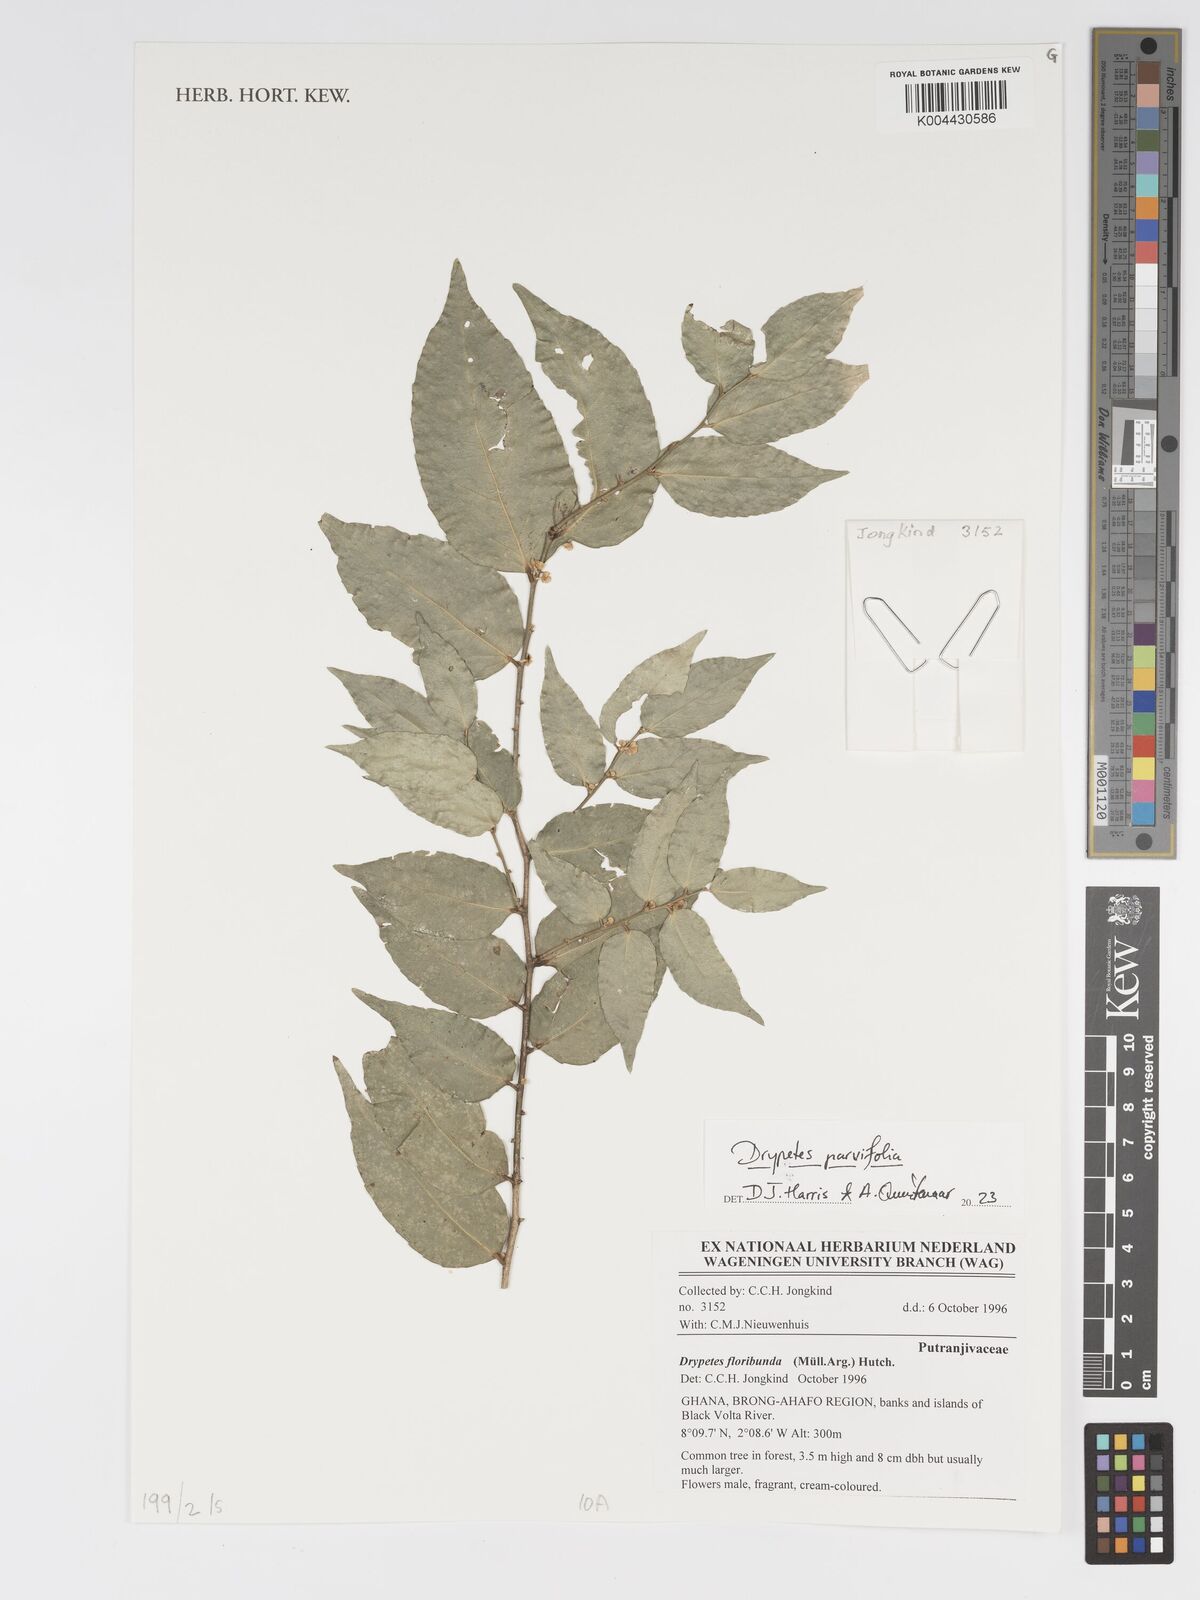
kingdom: Plantae
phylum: Tracheophyta
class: Magnoliopsida
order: Malpighiales
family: Putranjivaceae
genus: Drypetes
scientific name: Drypetes parvifolia
